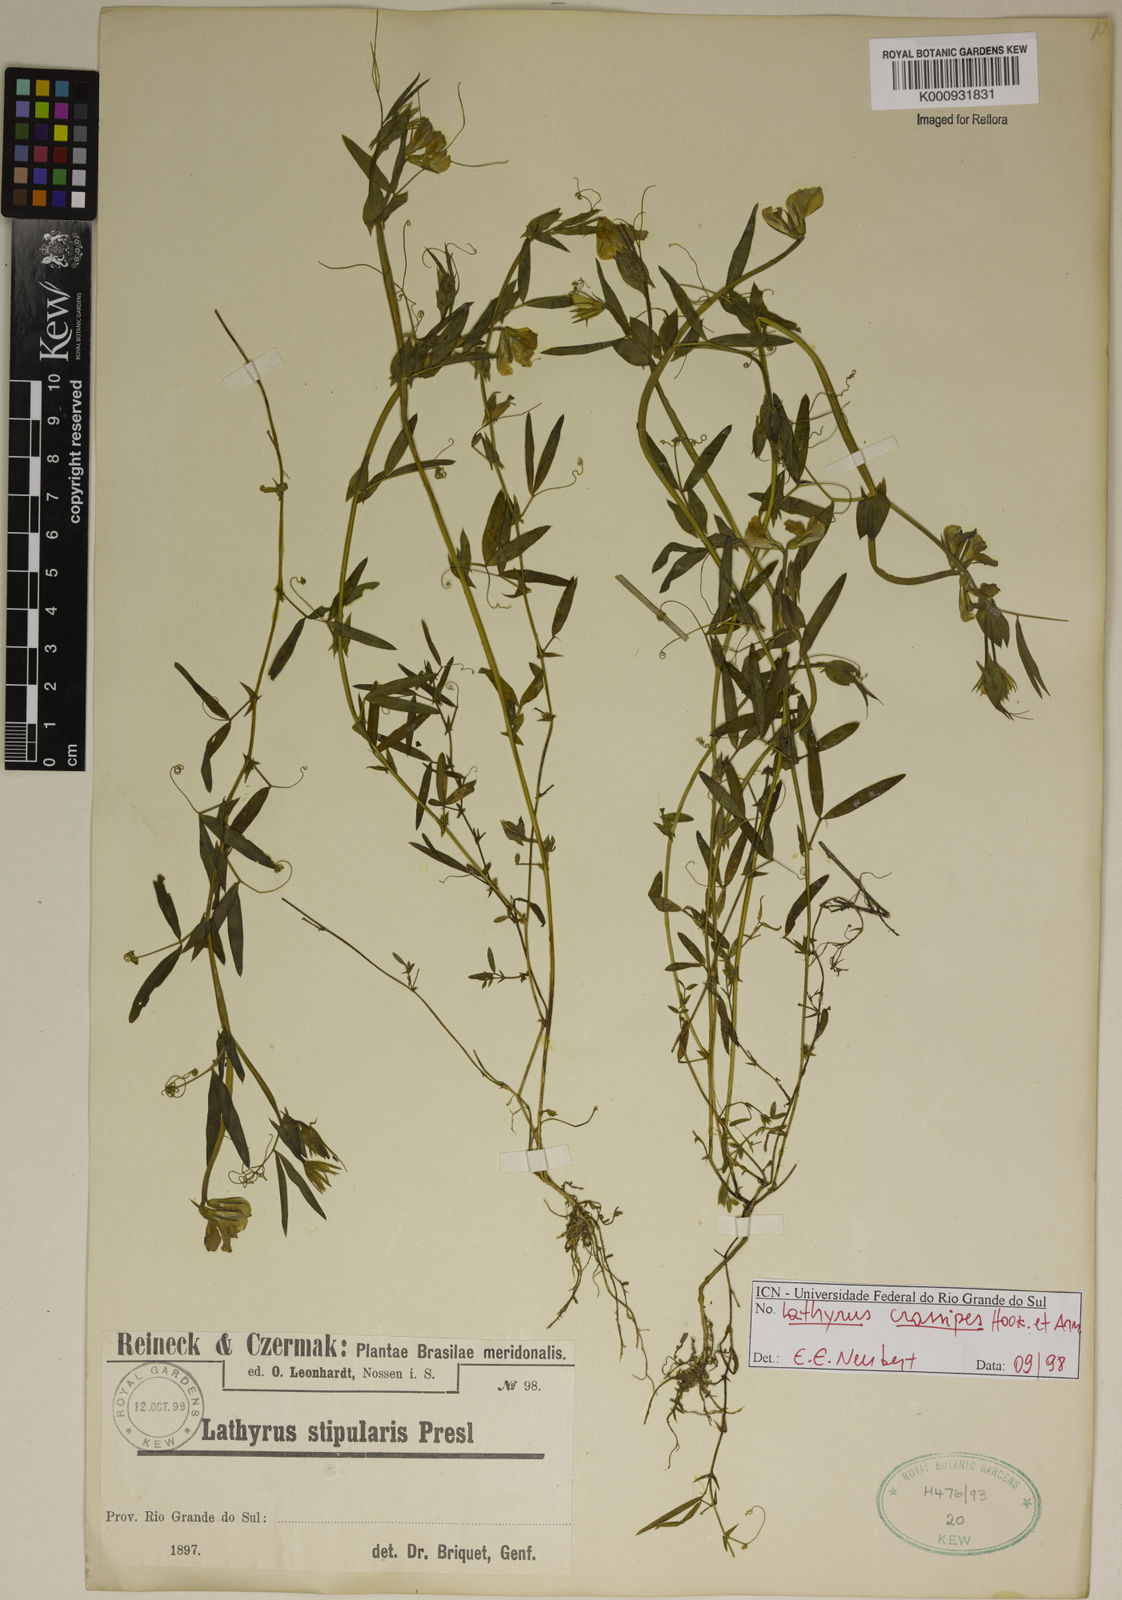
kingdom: Plantae
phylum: Tracheophyta
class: Magnoliopsida
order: Fabales
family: Fabaceae
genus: Lathyrus
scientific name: Lathyrus crassipes
